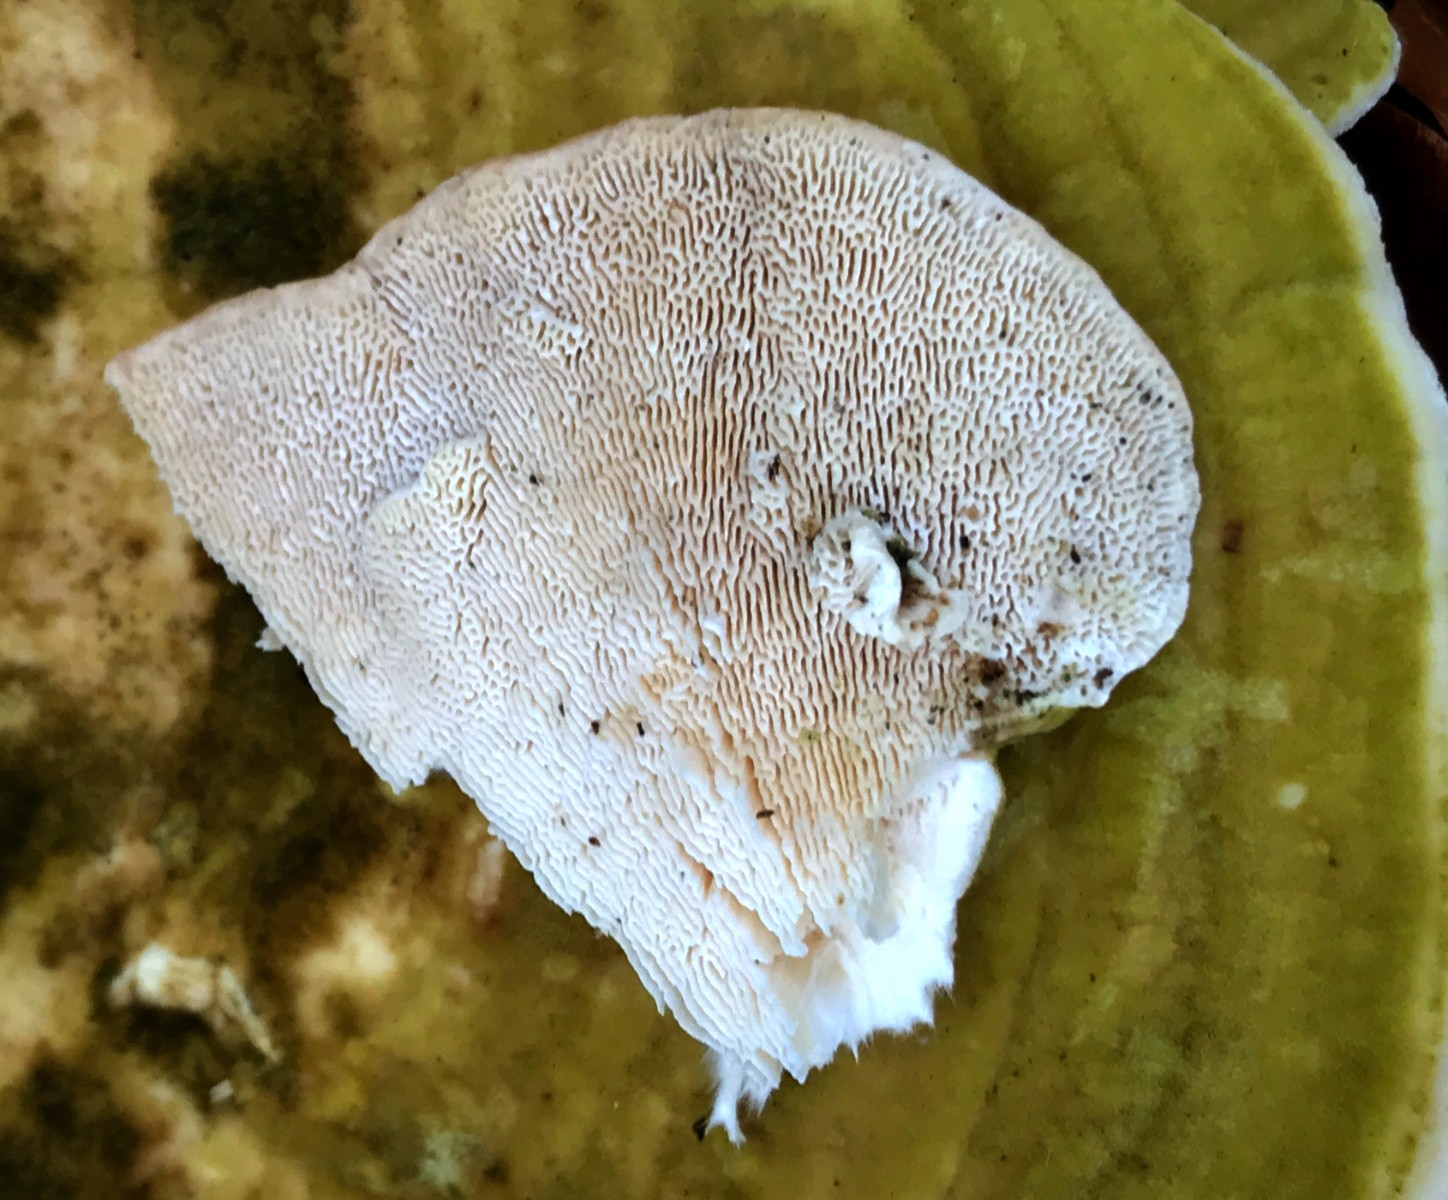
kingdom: Fungi
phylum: Basidiomycota
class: Agaricomycetes
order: Polyporales
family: Polyporaceae
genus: Trametes
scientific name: Trametes gibbosa
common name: puklet læderporesvamp
